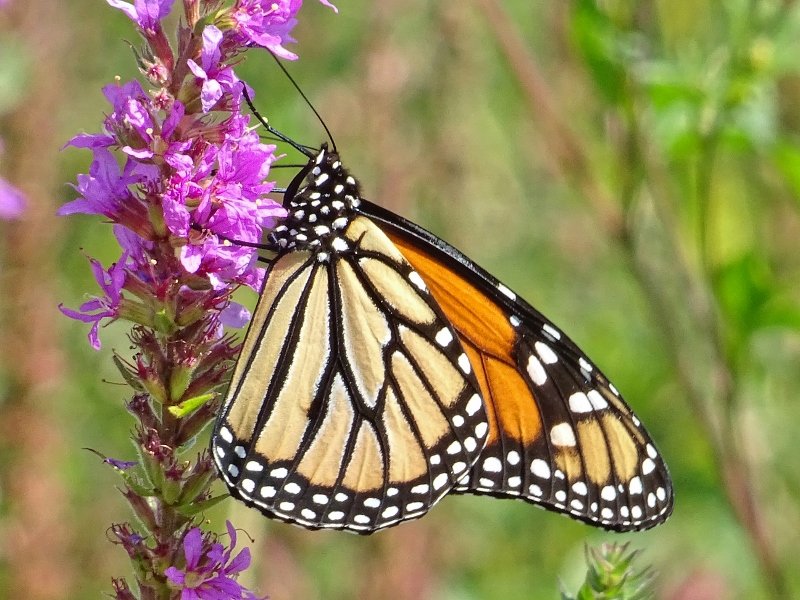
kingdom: Animalia
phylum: Arthropoda
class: Insecta
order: Lepidoptera
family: Nymphalidae
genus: Danaus
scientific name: Danaus plexippus
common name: Monarch
